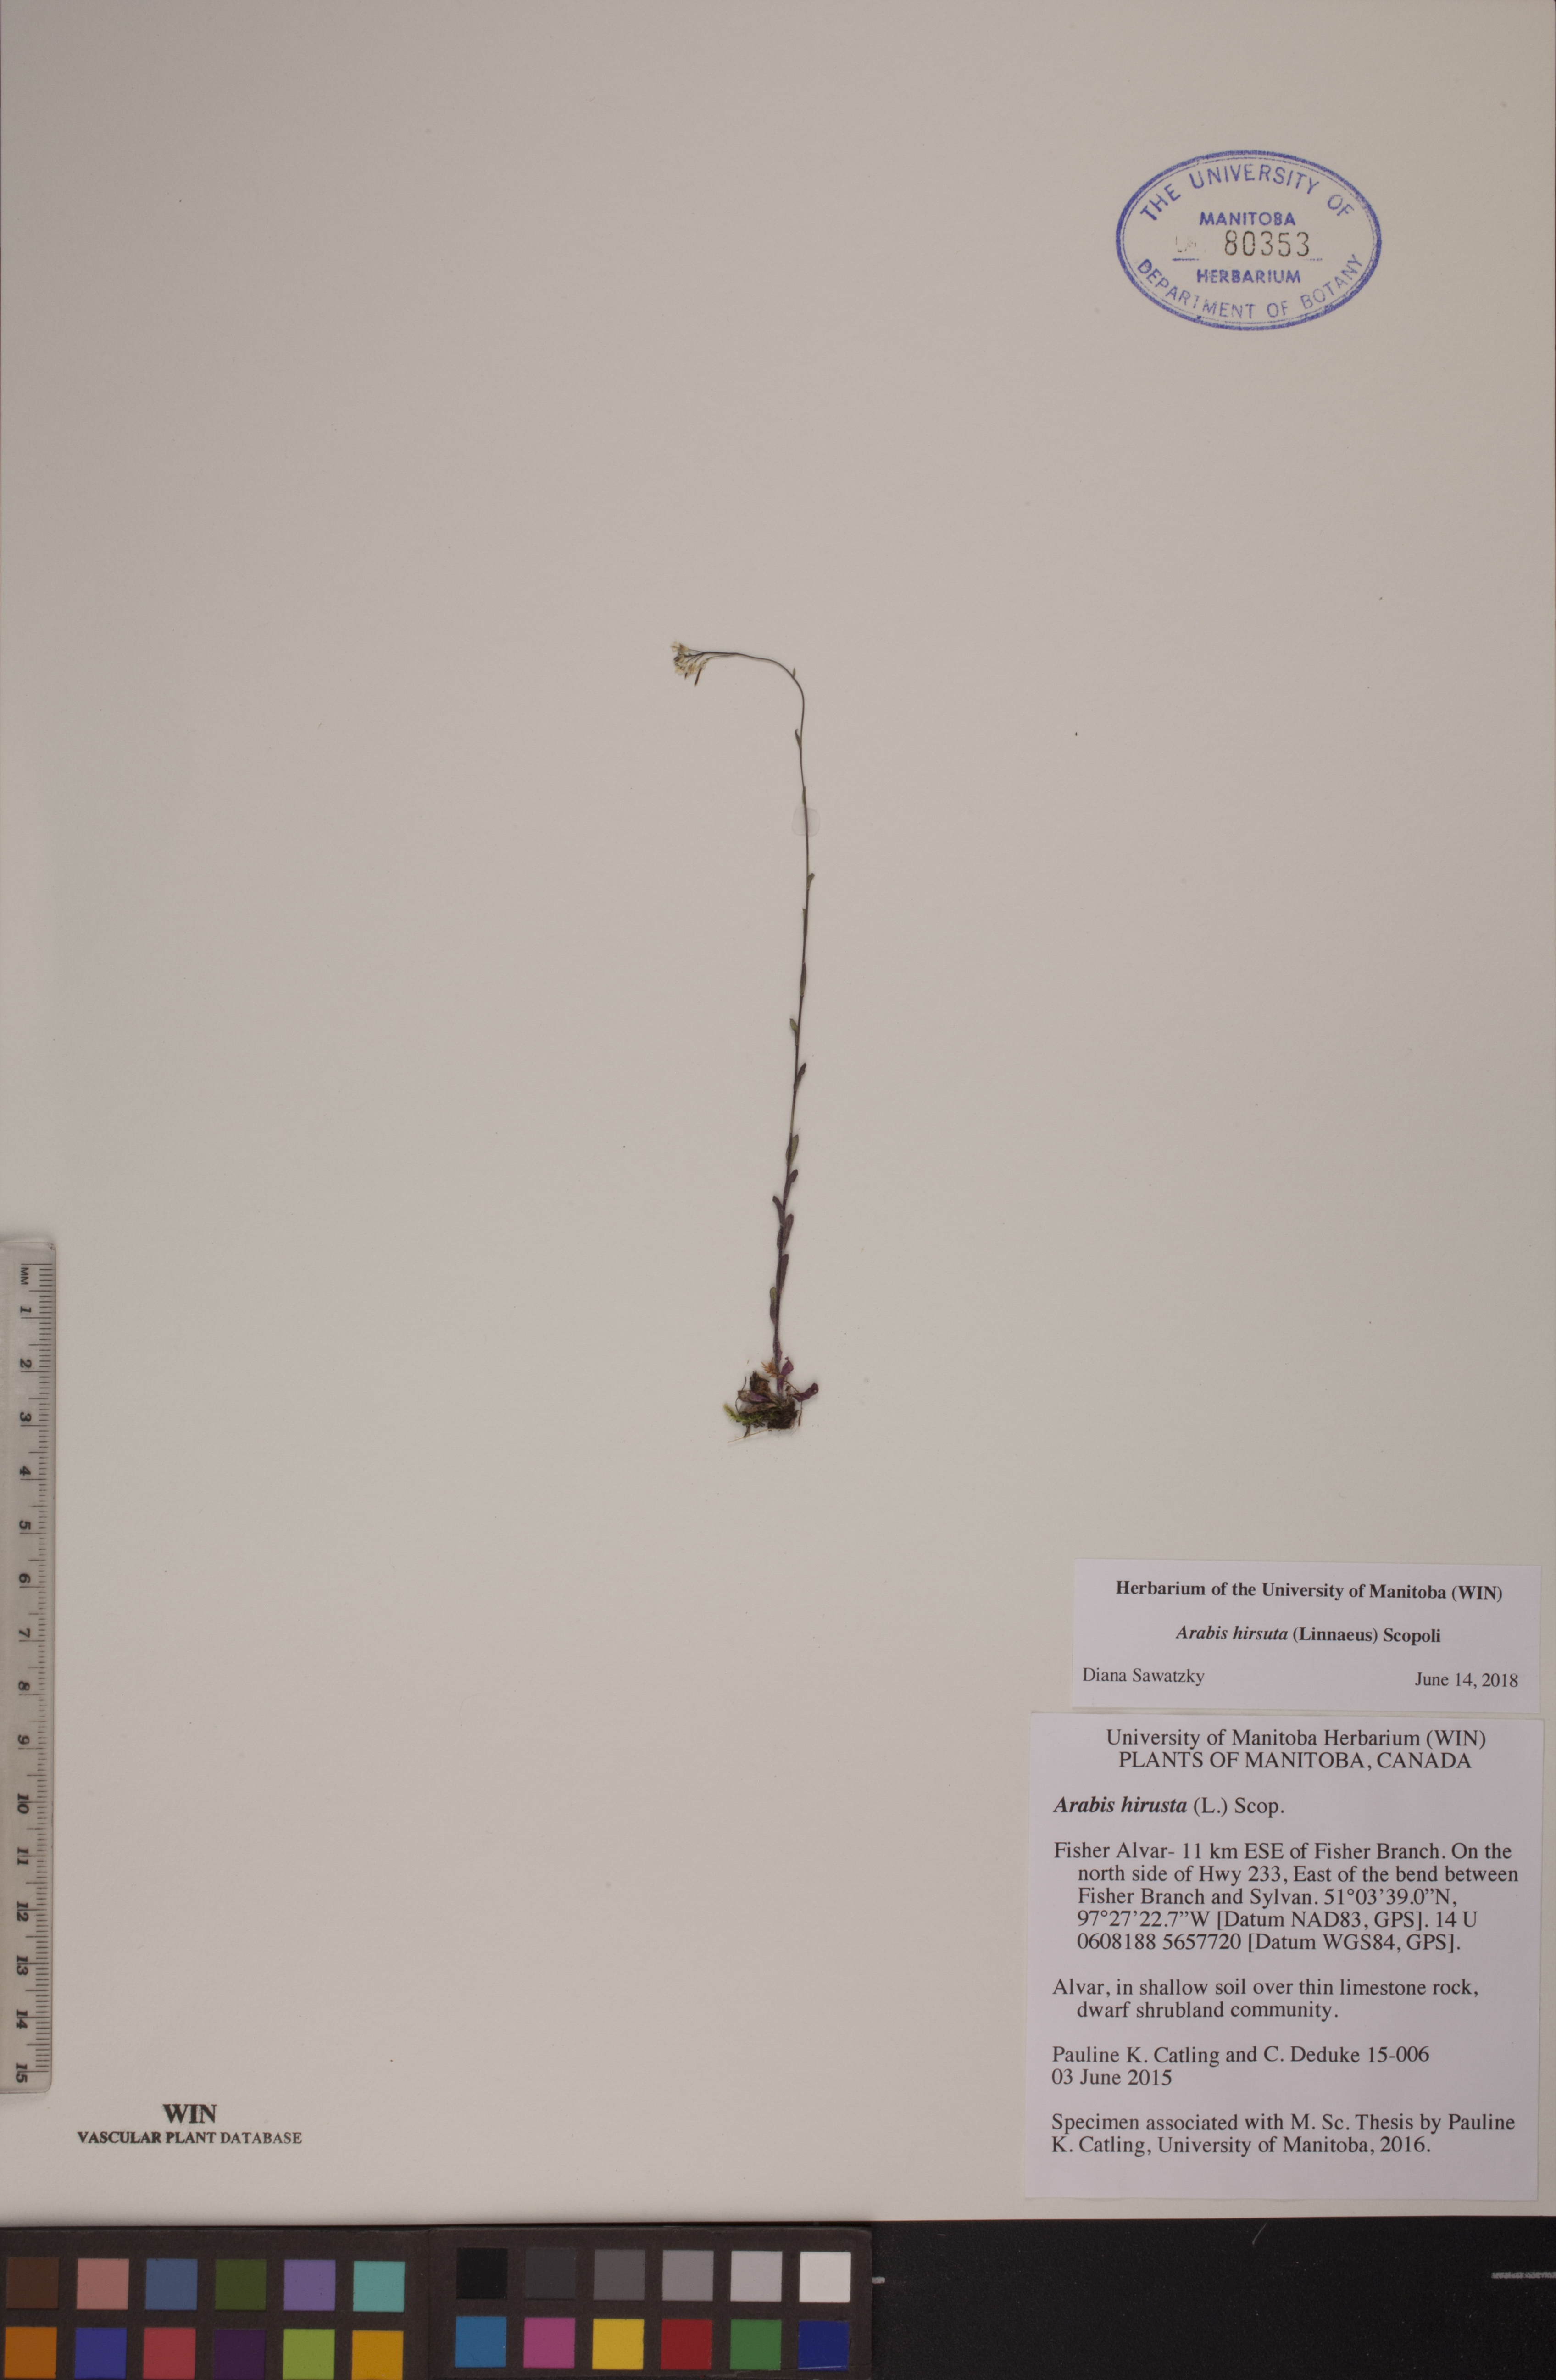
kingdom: Plantae
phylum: Tracheophyta
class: Magnoliopsida
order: Brassicales
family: Brassicaceae
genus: Arabis
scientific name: Arabis hirsuta
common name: Hairy rock-cress
